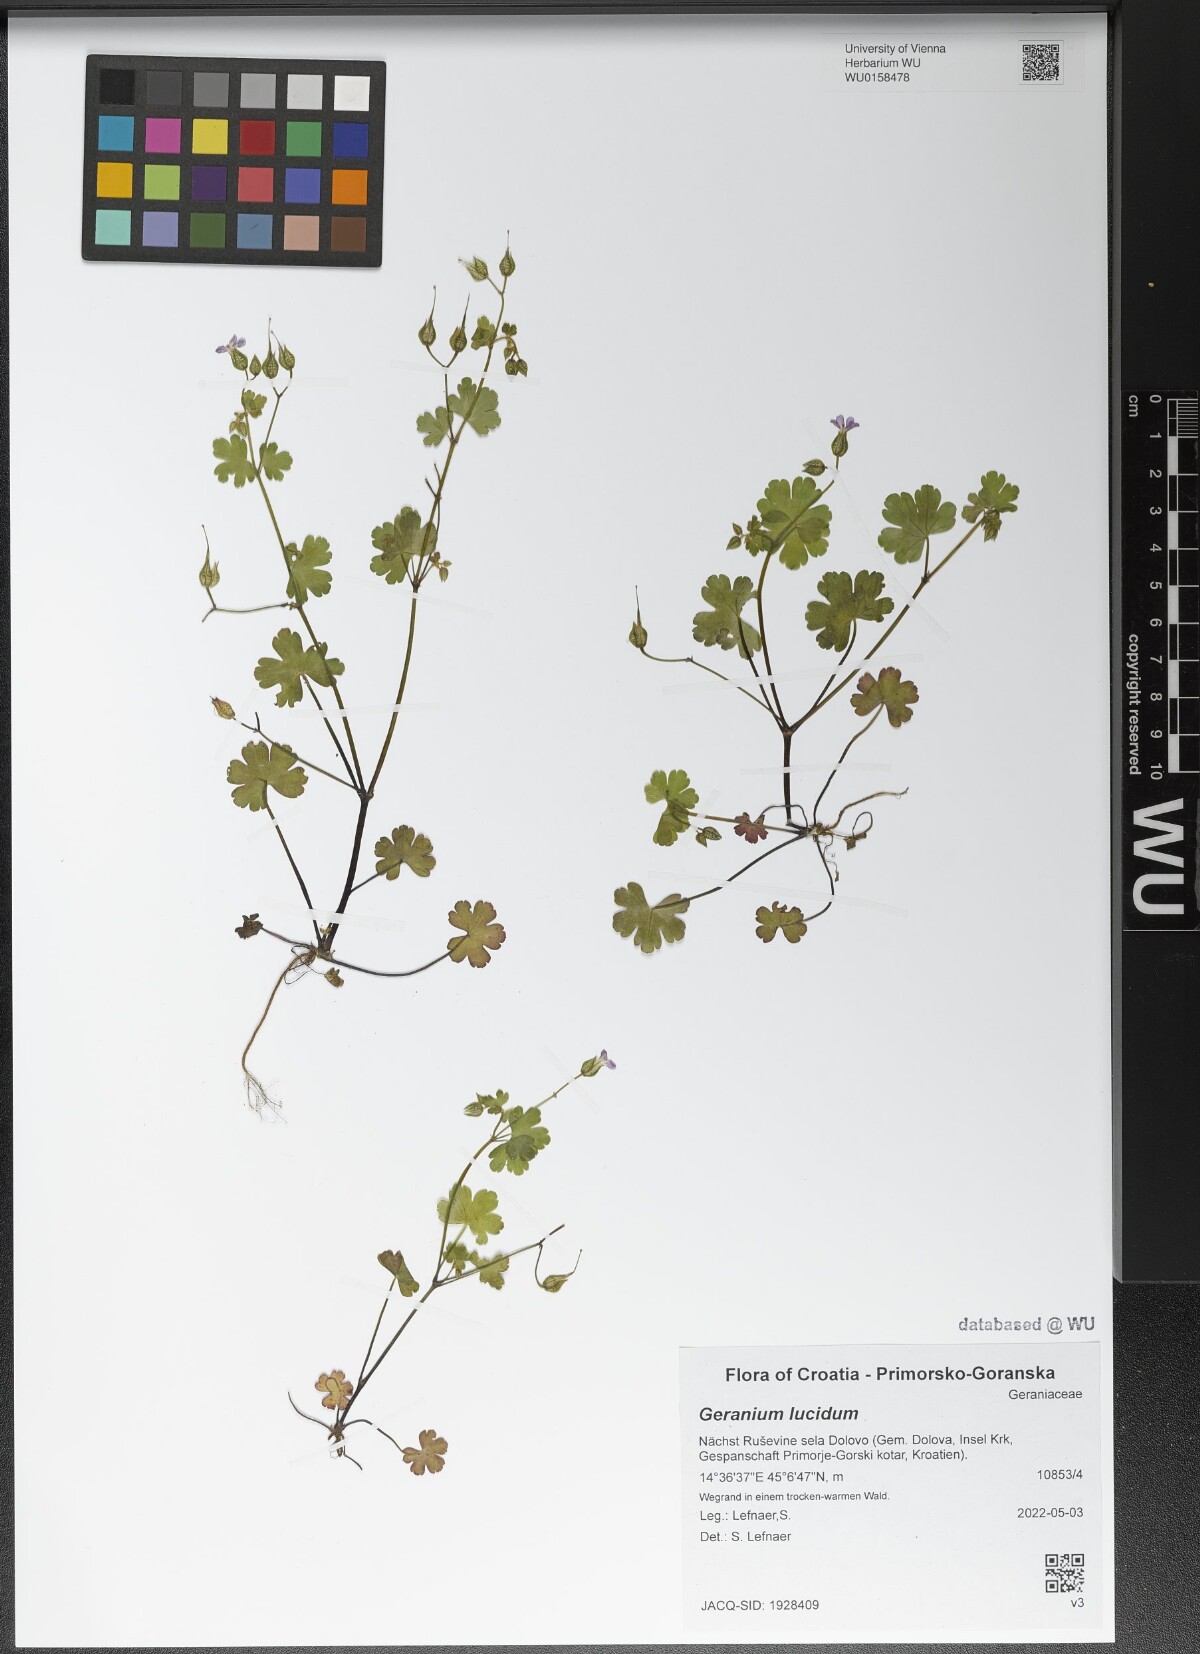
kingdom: Plantae
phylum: Tracheophyta
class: Magnoliopsida
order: Geraniales
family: Geraniaceae
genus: Geranium
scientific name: Geranium lucidum
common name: Shining crane's-bill
